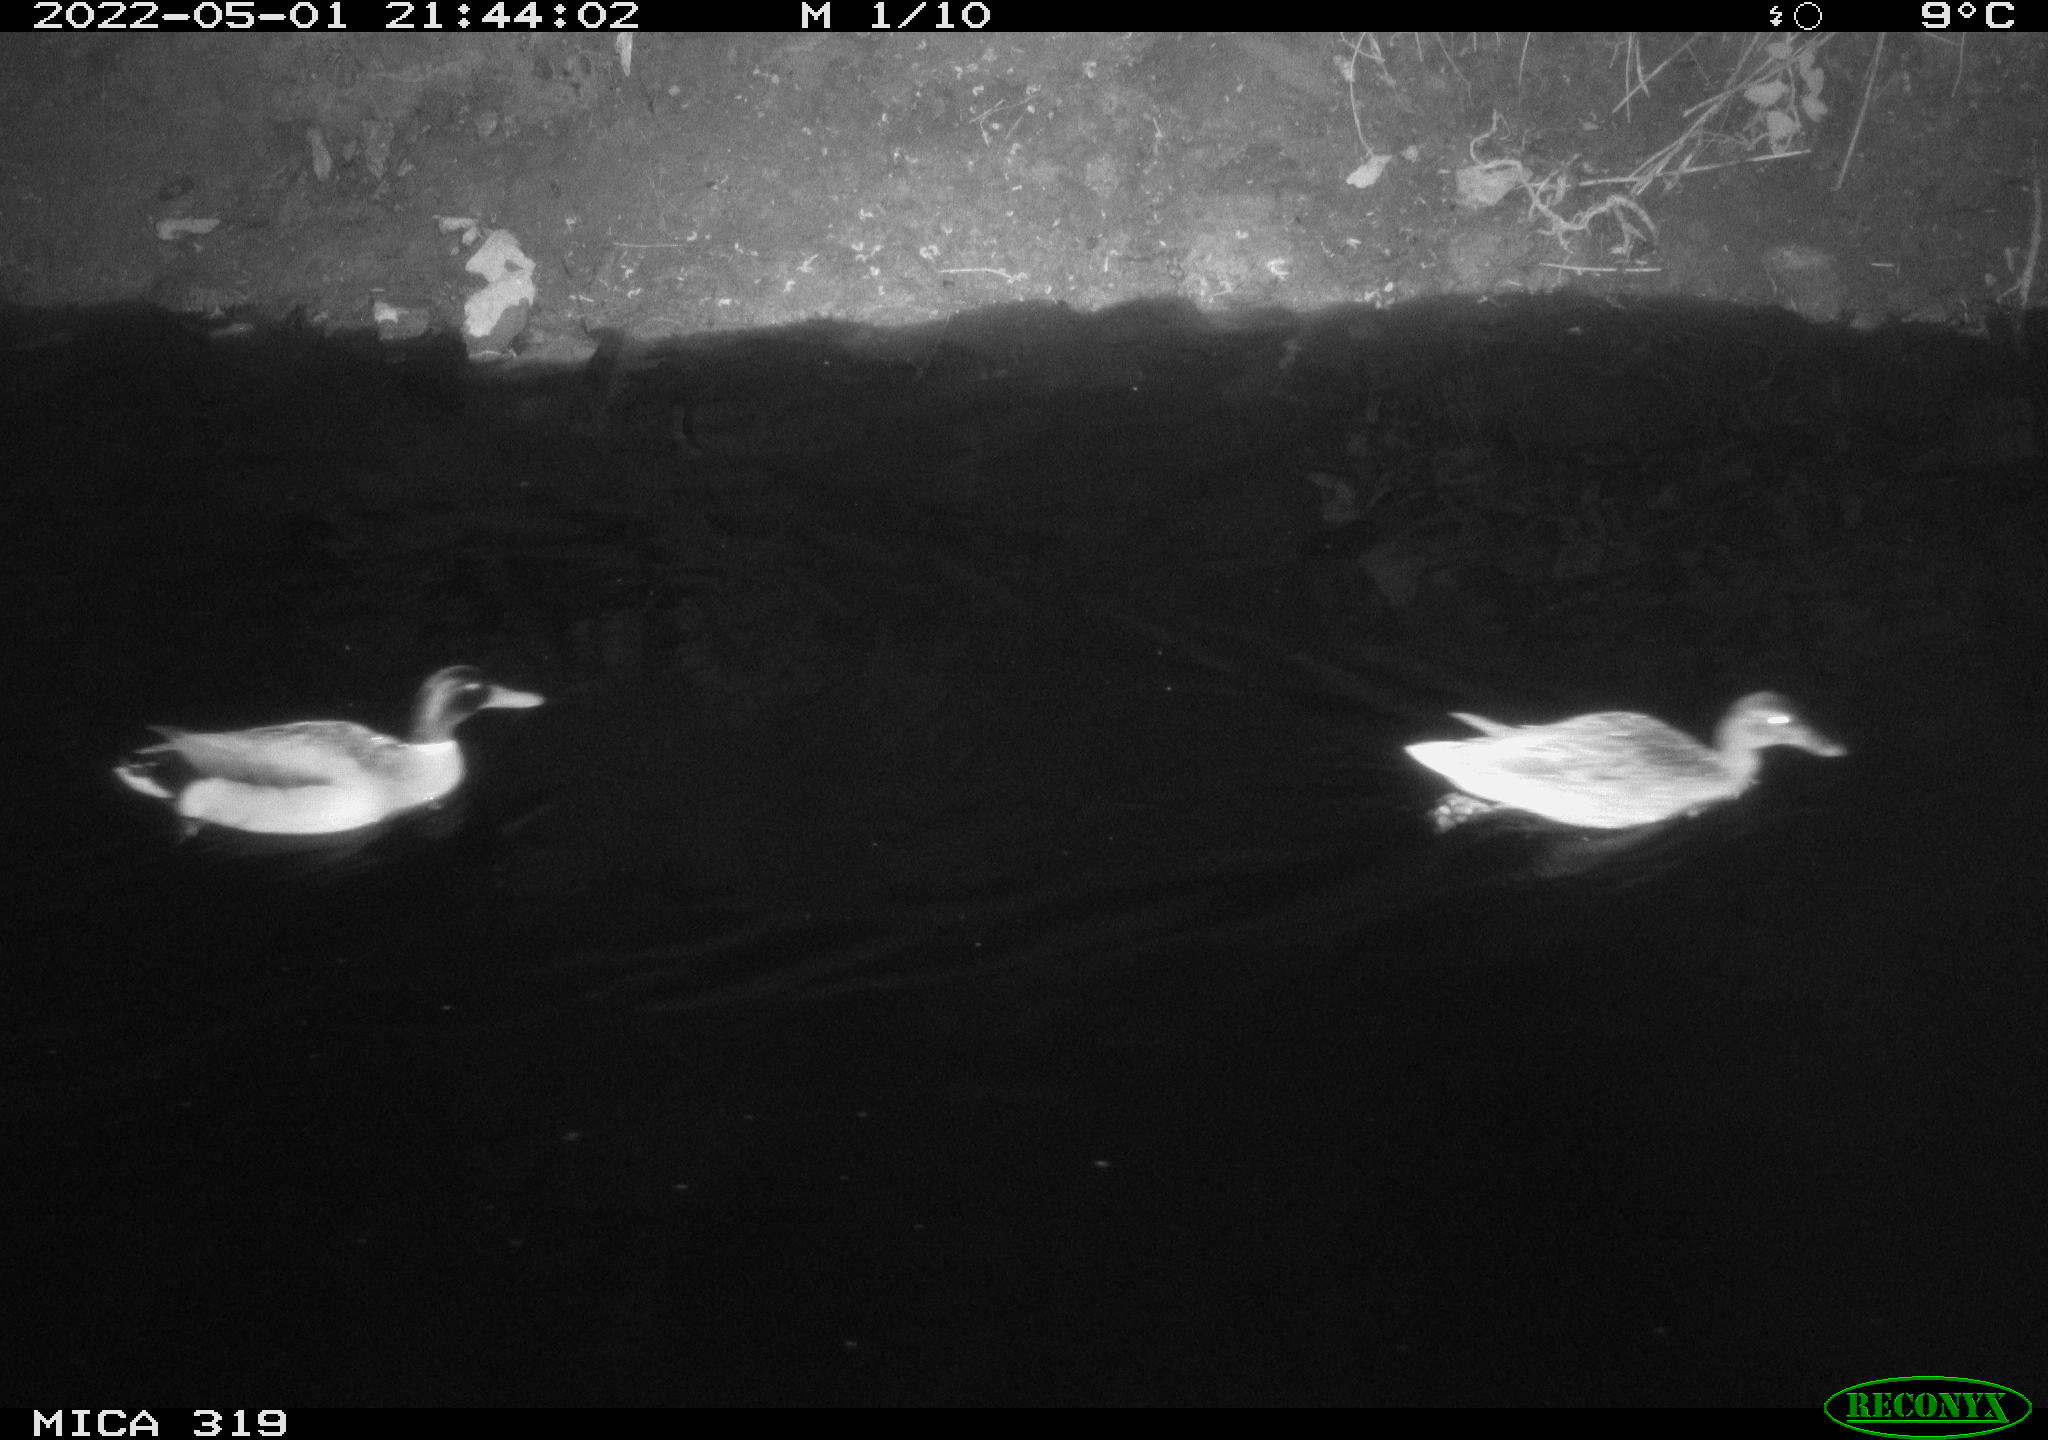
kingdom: Animalia
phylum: Chordata
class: Aves
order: Anseriformes
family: Anatidae
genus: Anas
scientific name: Anas platyrhynchos
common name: Mallard
